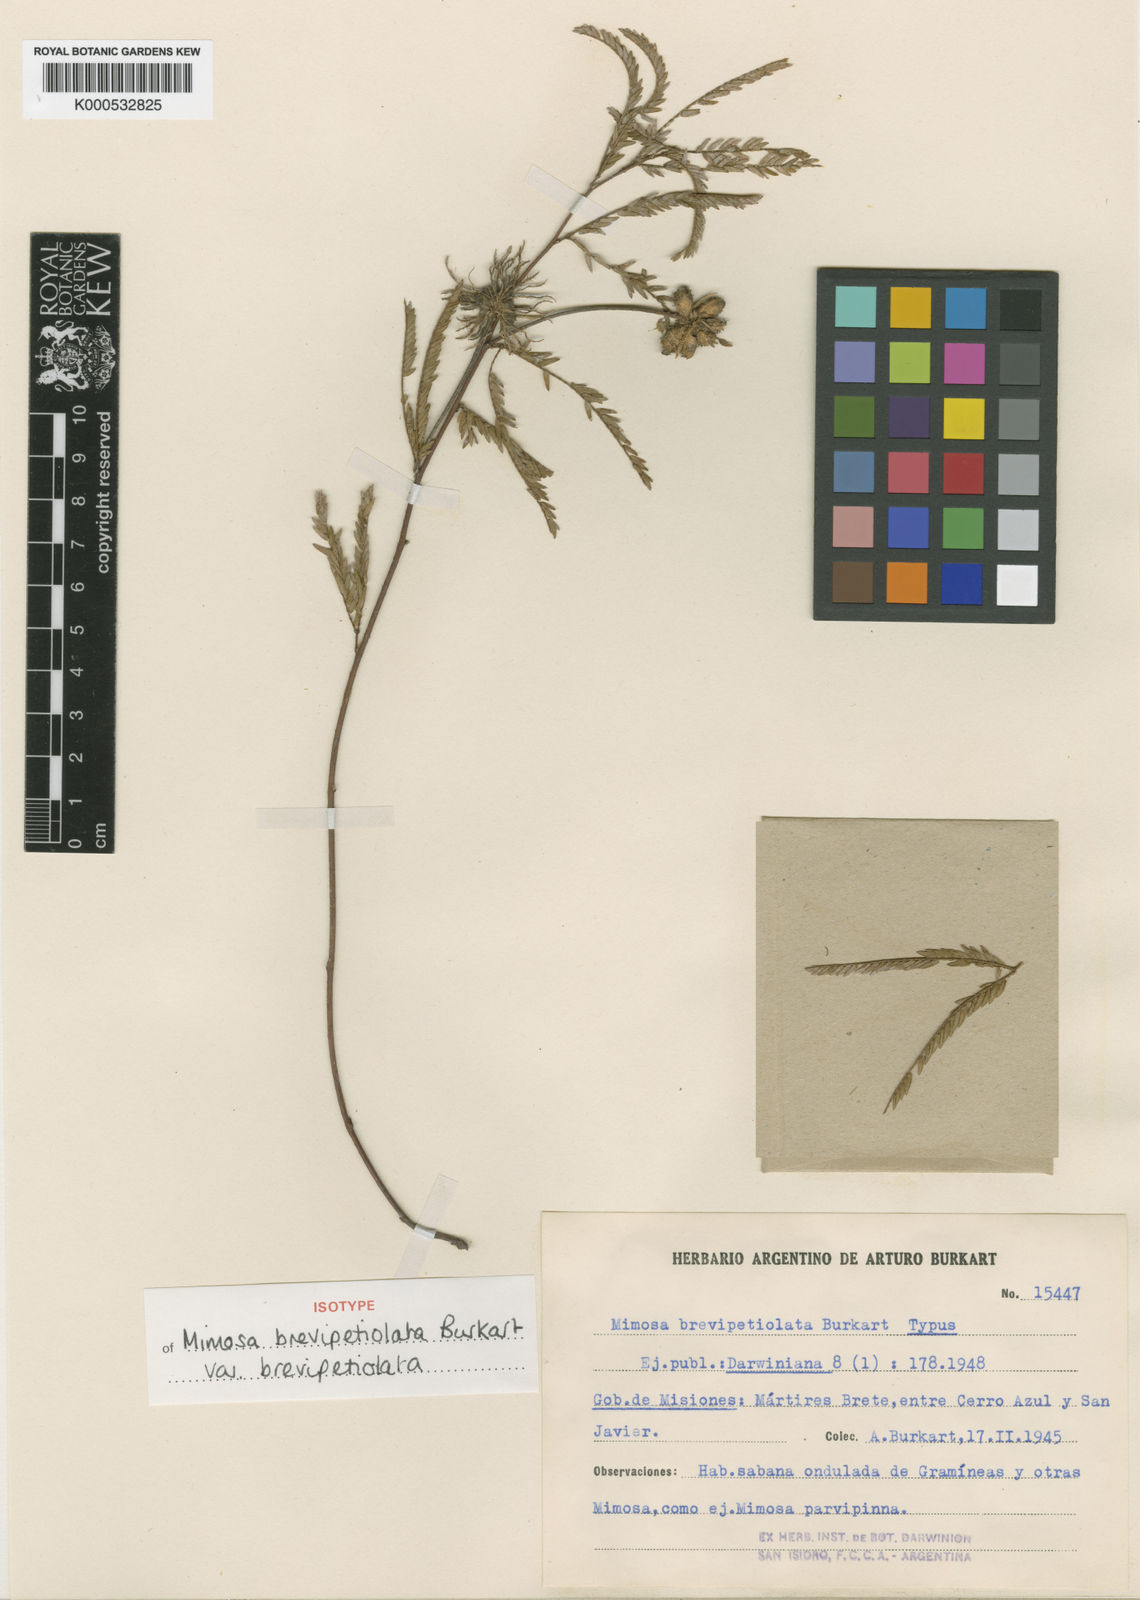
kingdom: Plantae
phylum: Tracheophyta
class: Magnoliopsida
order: Fabales
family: Fabaceae
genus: Mimosa
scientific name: Mimosa brevipetiolata
